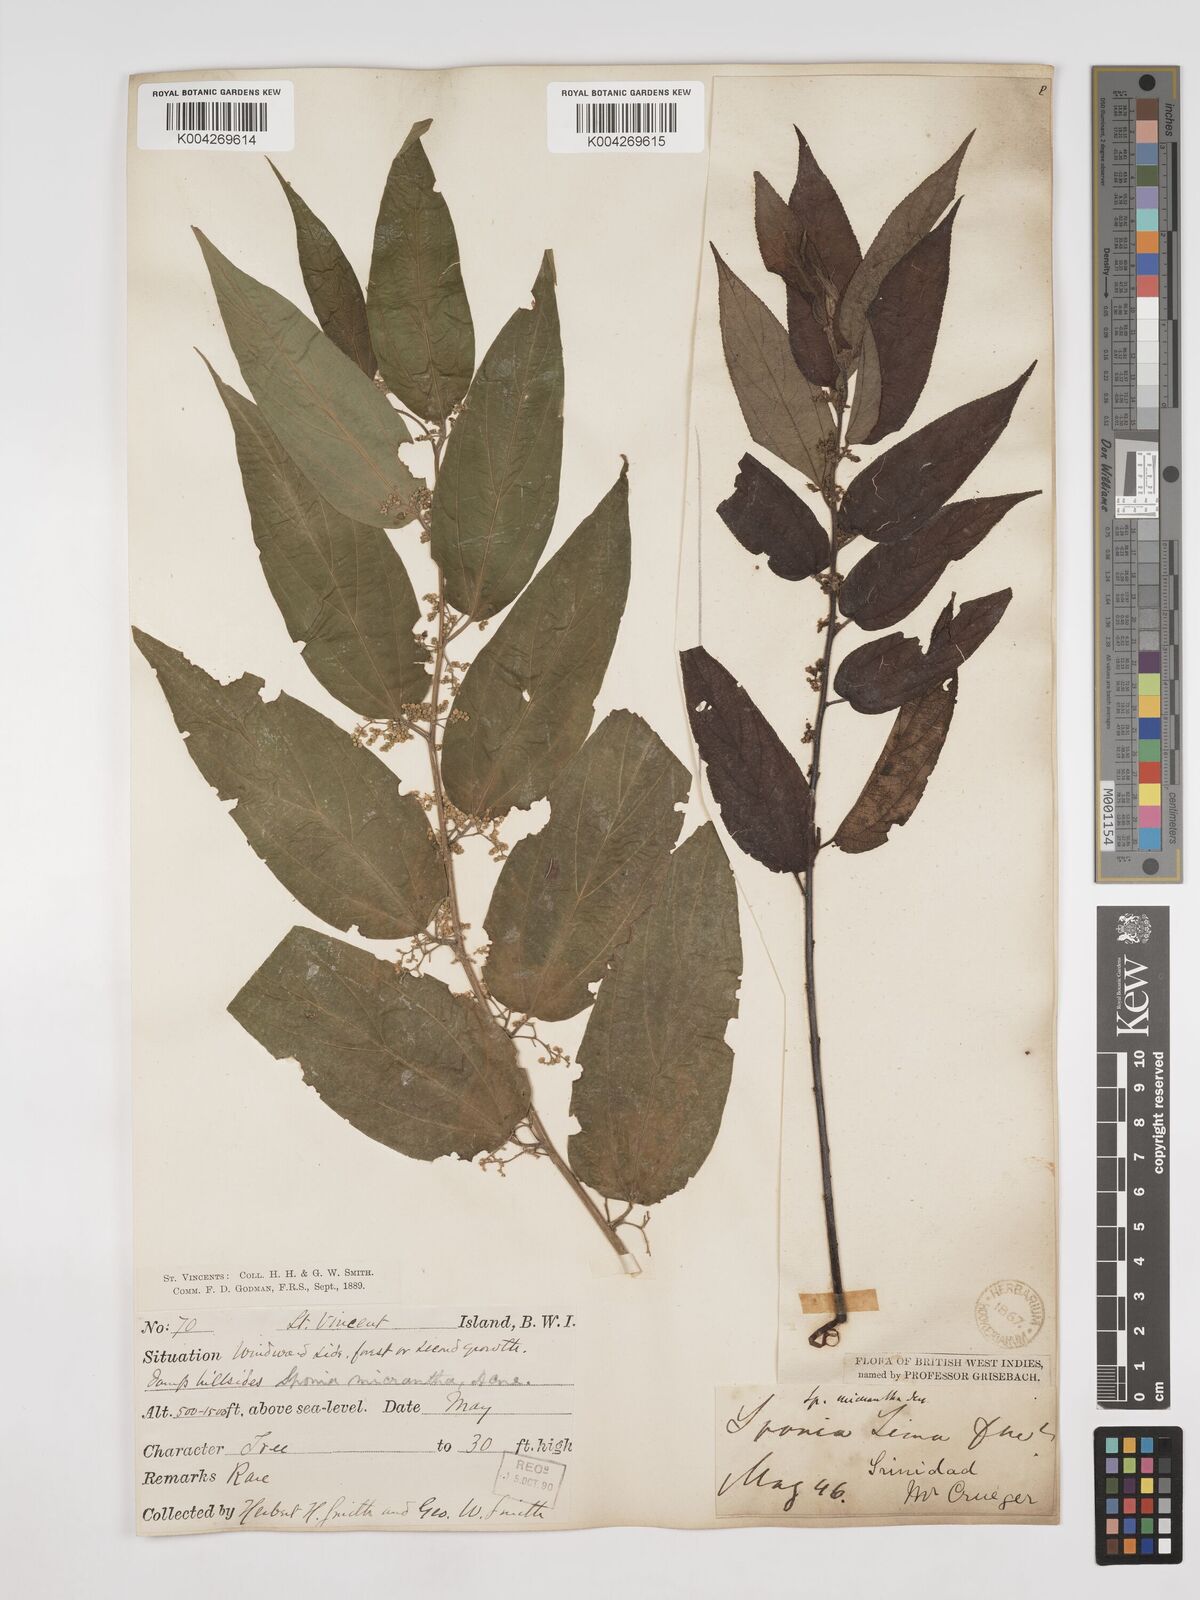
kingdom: Plantae
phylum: Tracheophyta
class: Magnoliopsida
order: Rosales
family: Cannabaceae
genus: Trema
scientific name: Trema micranthum
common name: Jamaican nettletree
